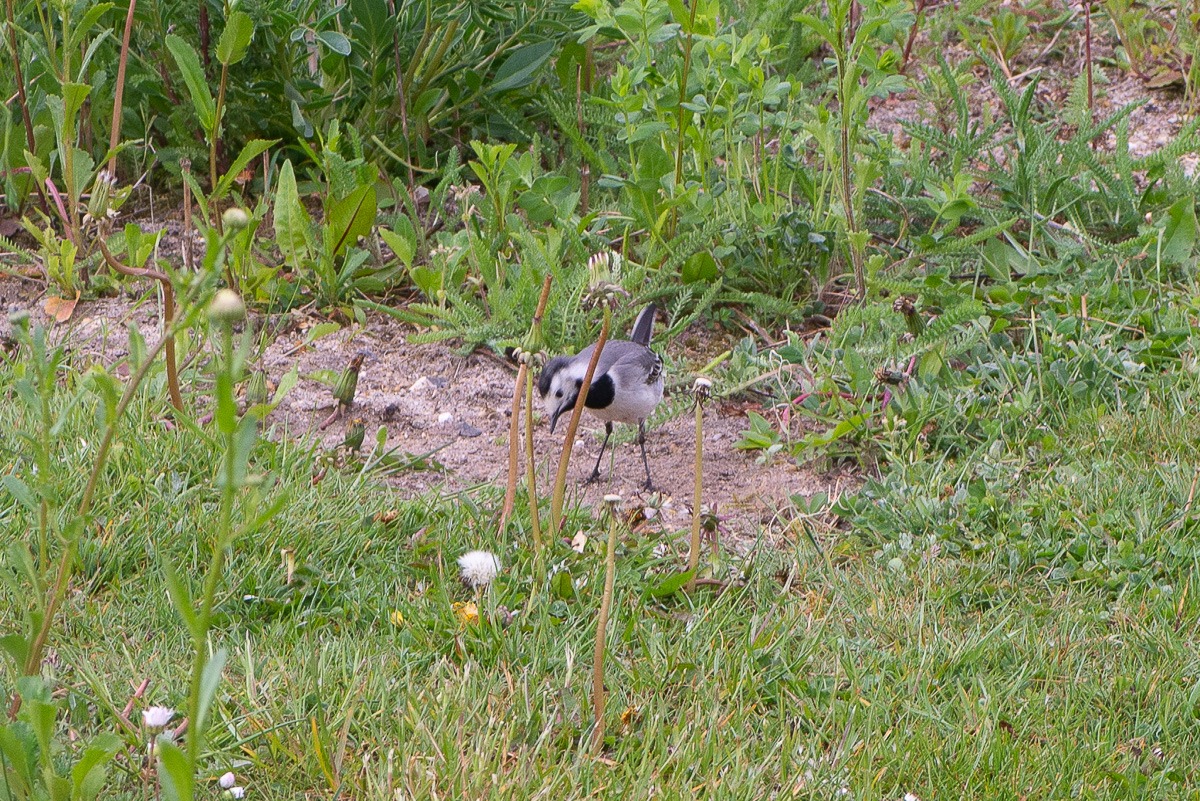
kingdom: Animalia
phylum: Chordata
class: Aves
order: Passeriformes
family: Motacillidae
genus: Motacilla
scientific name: Motacilla alba
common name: Hvid vipstjert
